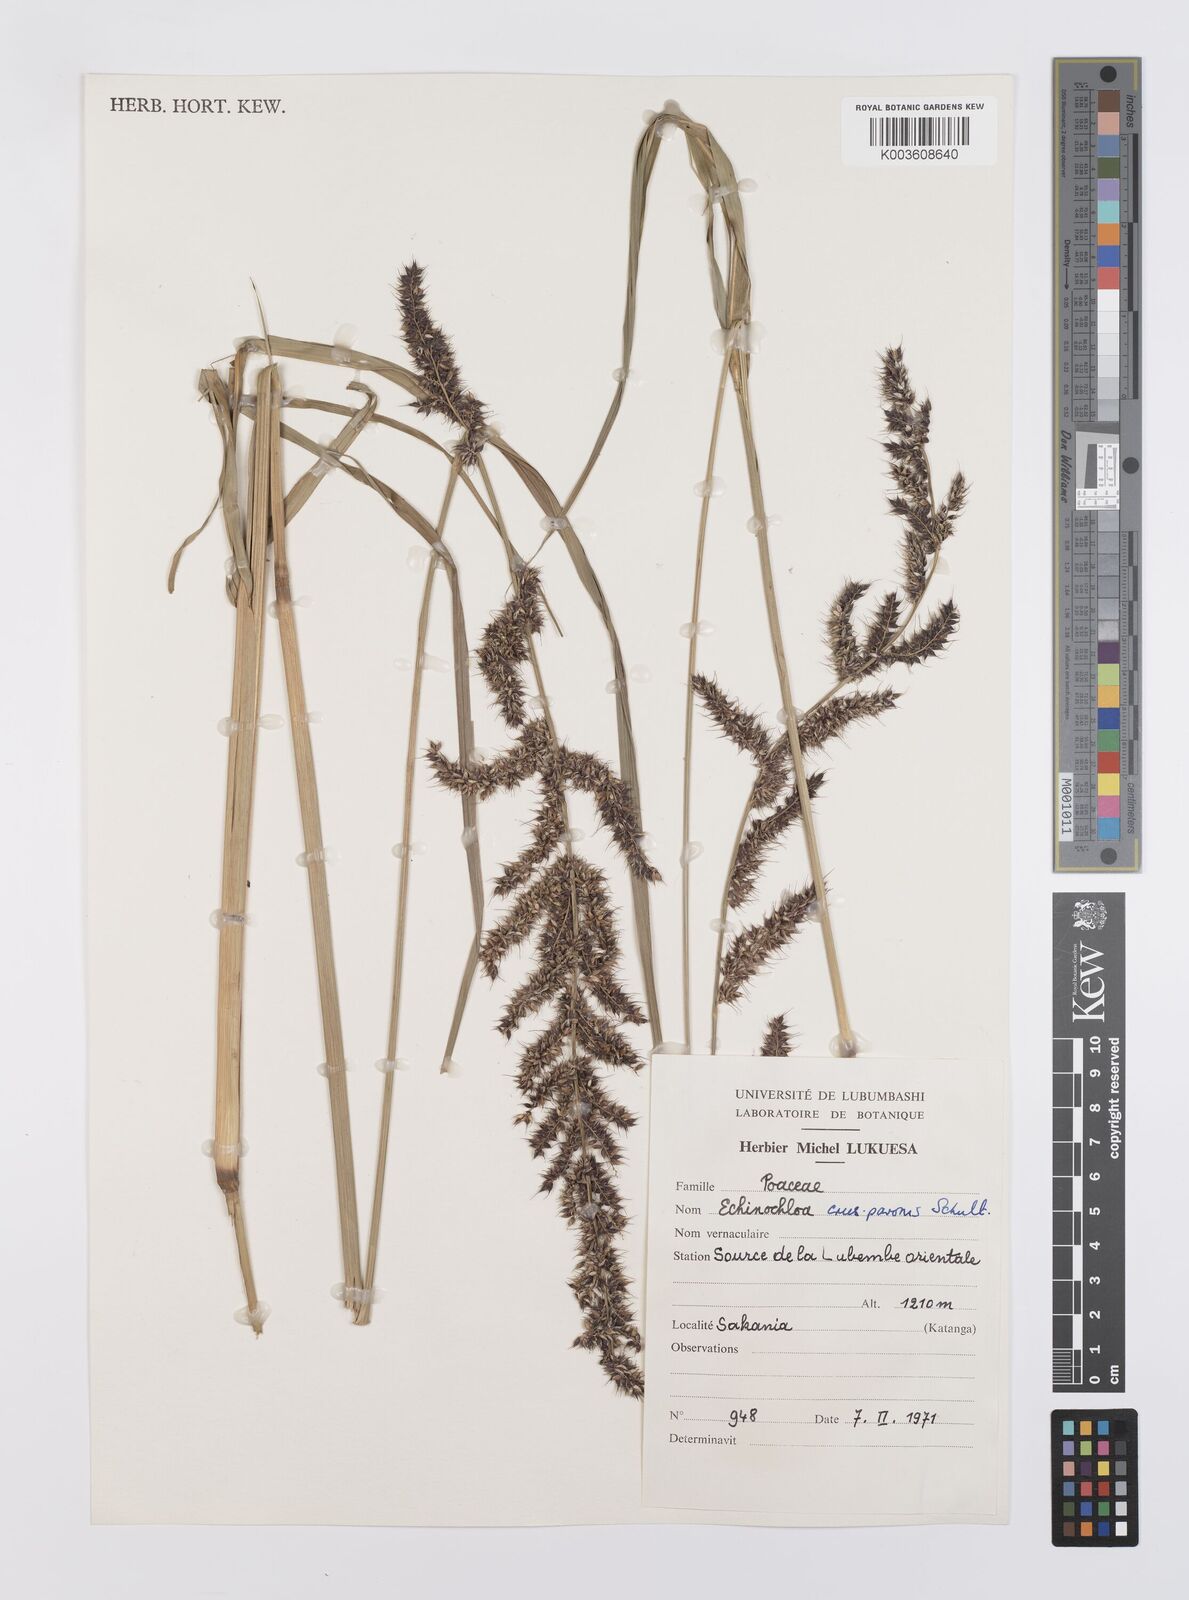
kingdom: Plantae
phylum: Tracheophyta
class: Liliopsida
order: Poales
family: Poaceae
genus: Echinochloa
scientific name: Echinochloa crus-pavonis
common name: Gulf cockspur grass
